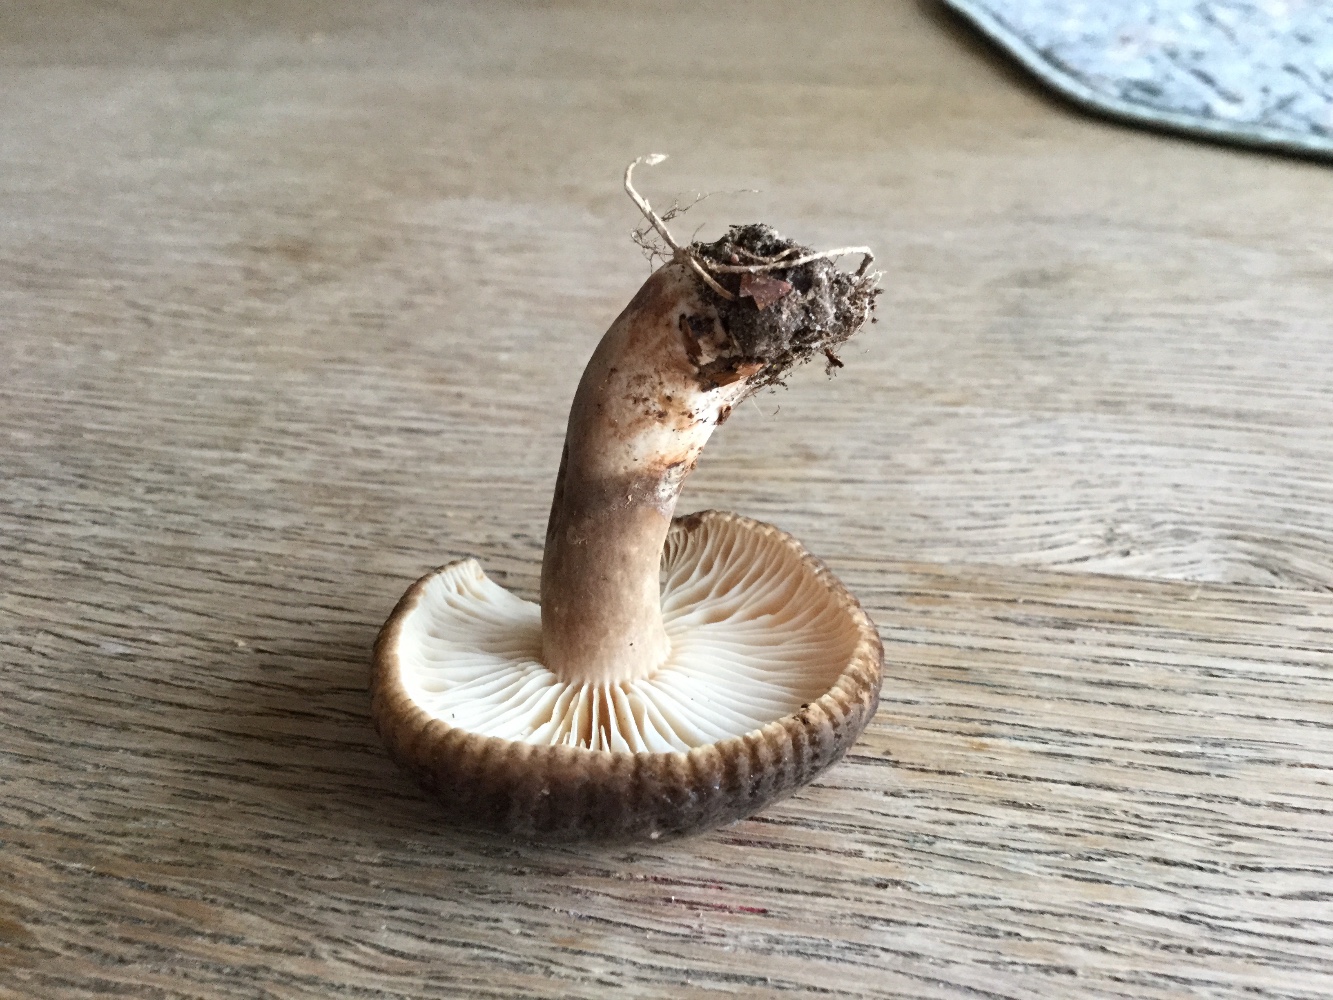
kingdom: Fungi
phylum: Basidiomycota
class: Agaricomycetes
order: Russulales
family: Russulaceae
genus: Lactarius
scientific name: Lactarius romagnesii
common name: fjernbladet mælkehat
